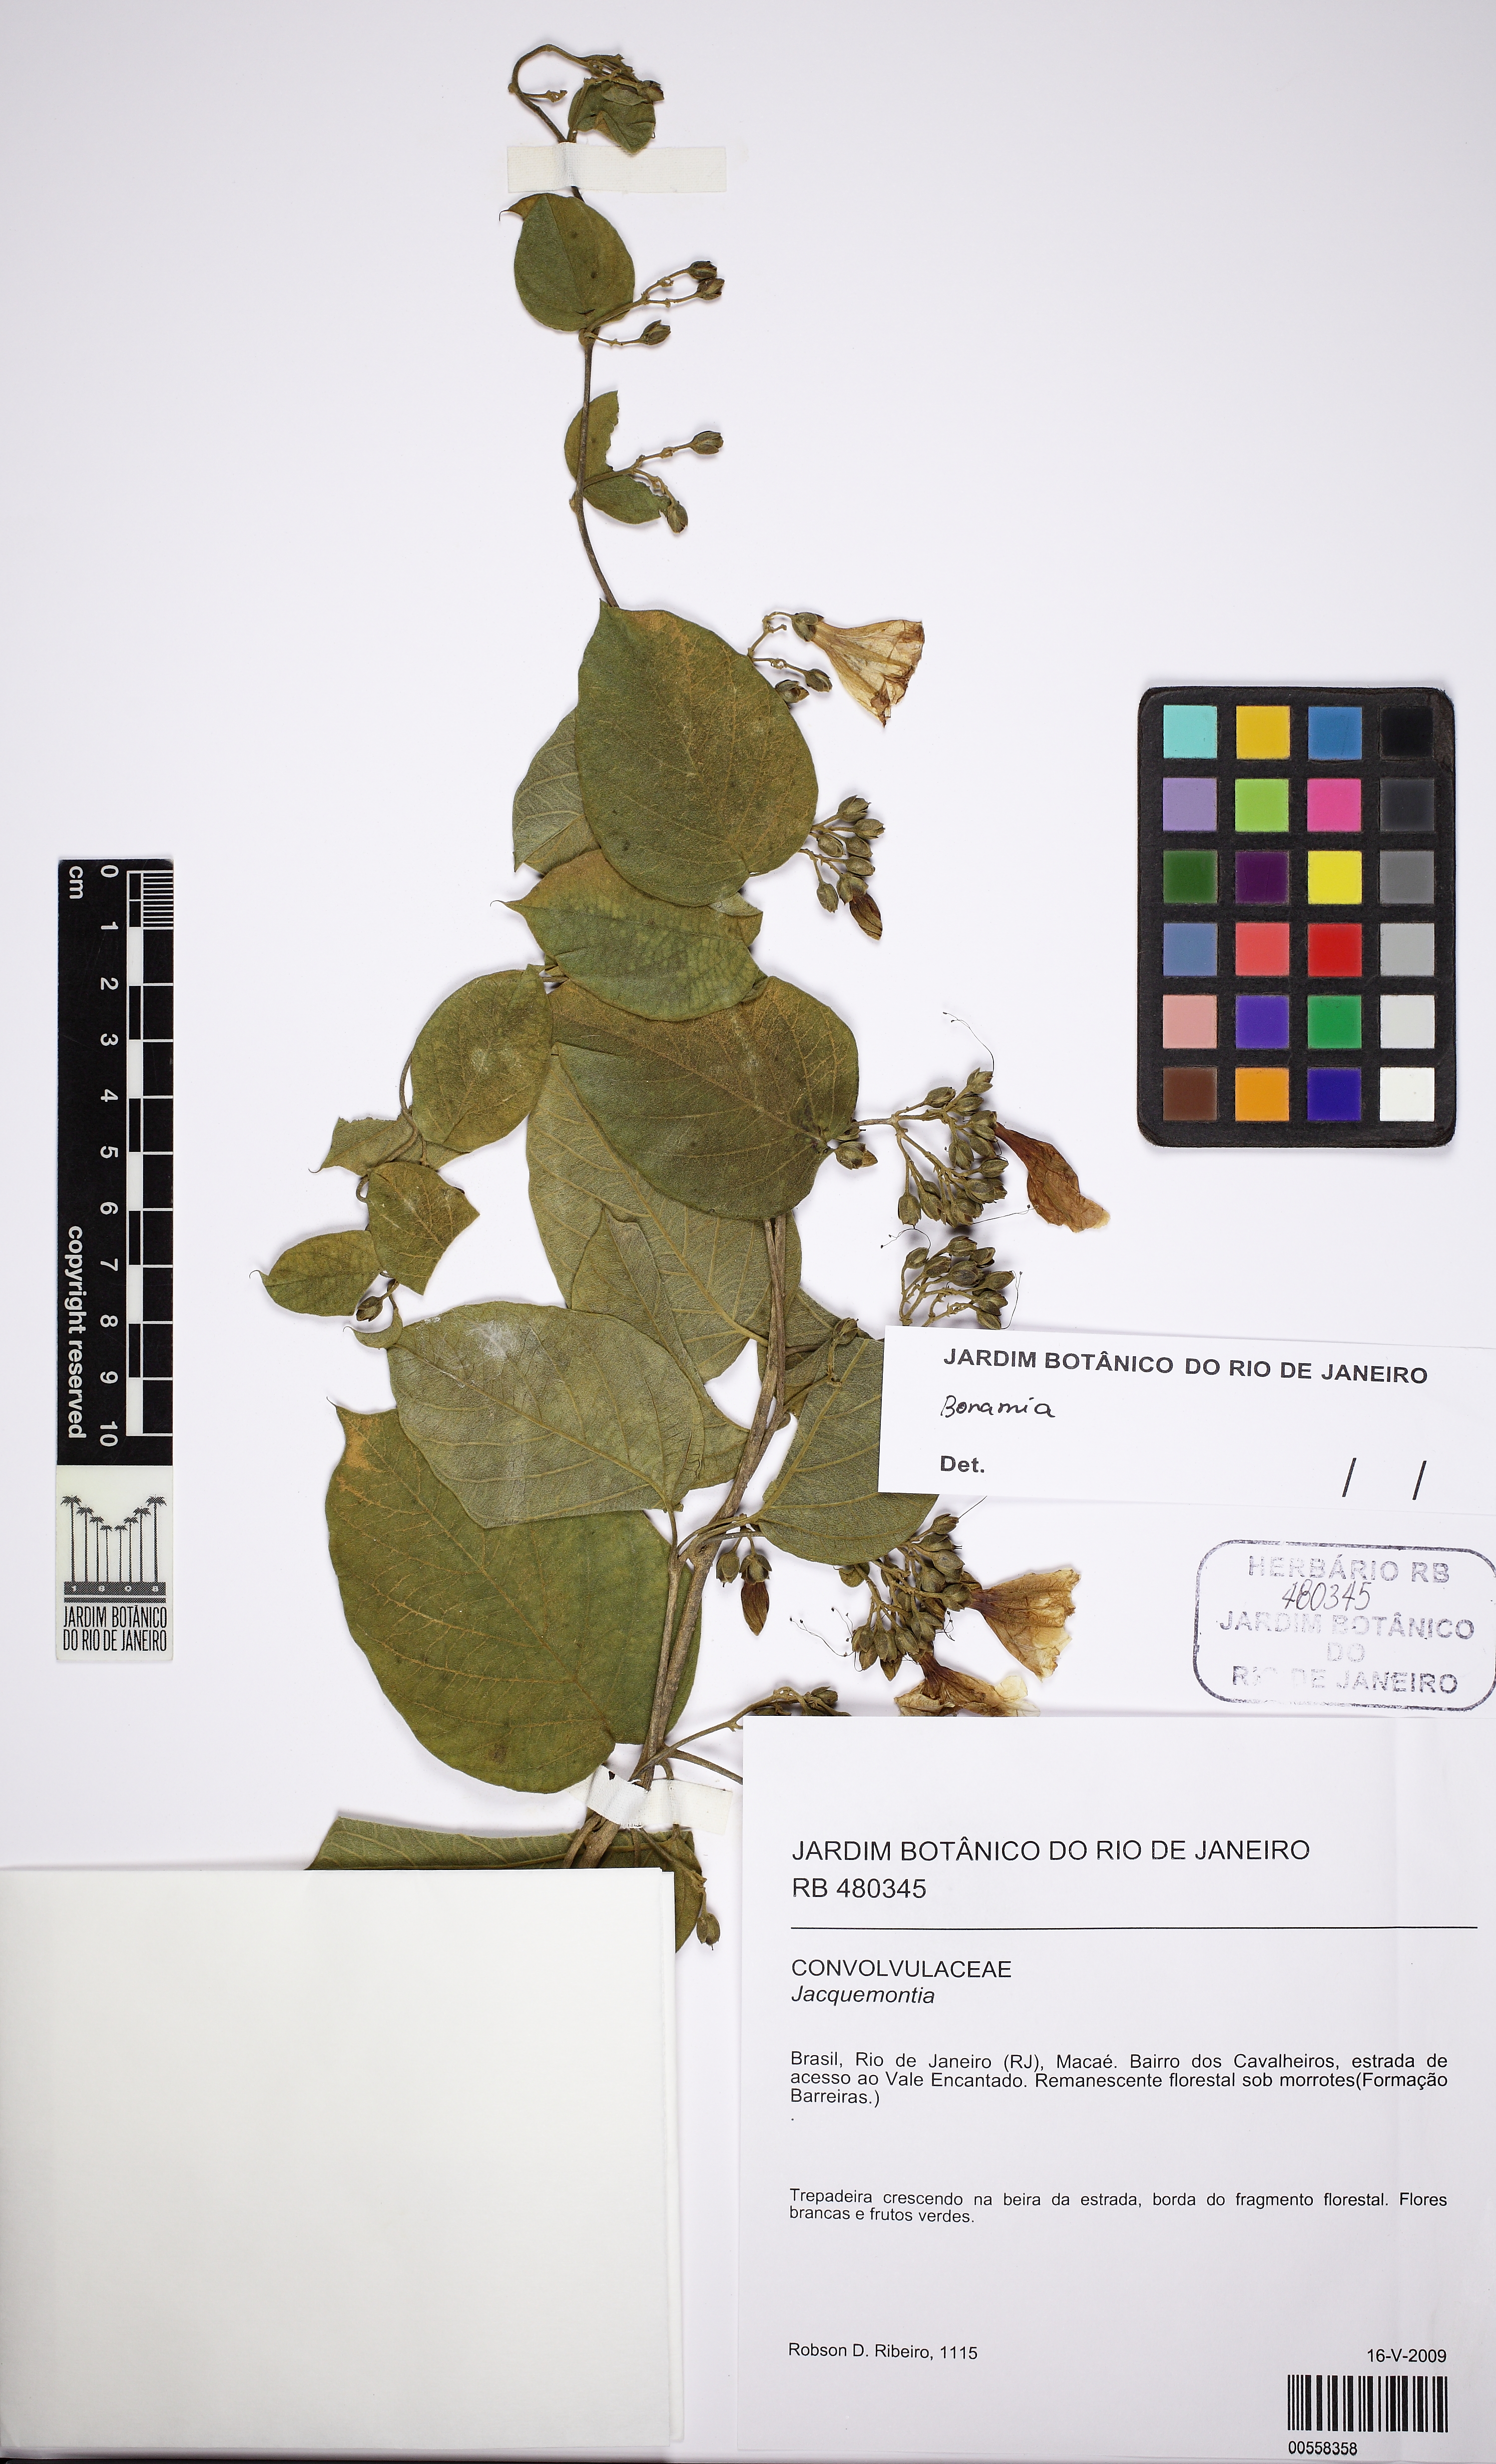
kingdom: Plantae
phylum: Tracheophyta
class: Magnoliopsida
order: Solanales
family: Convolvulaceae
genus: Bonamia
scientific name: Bonamia agrostopolis
